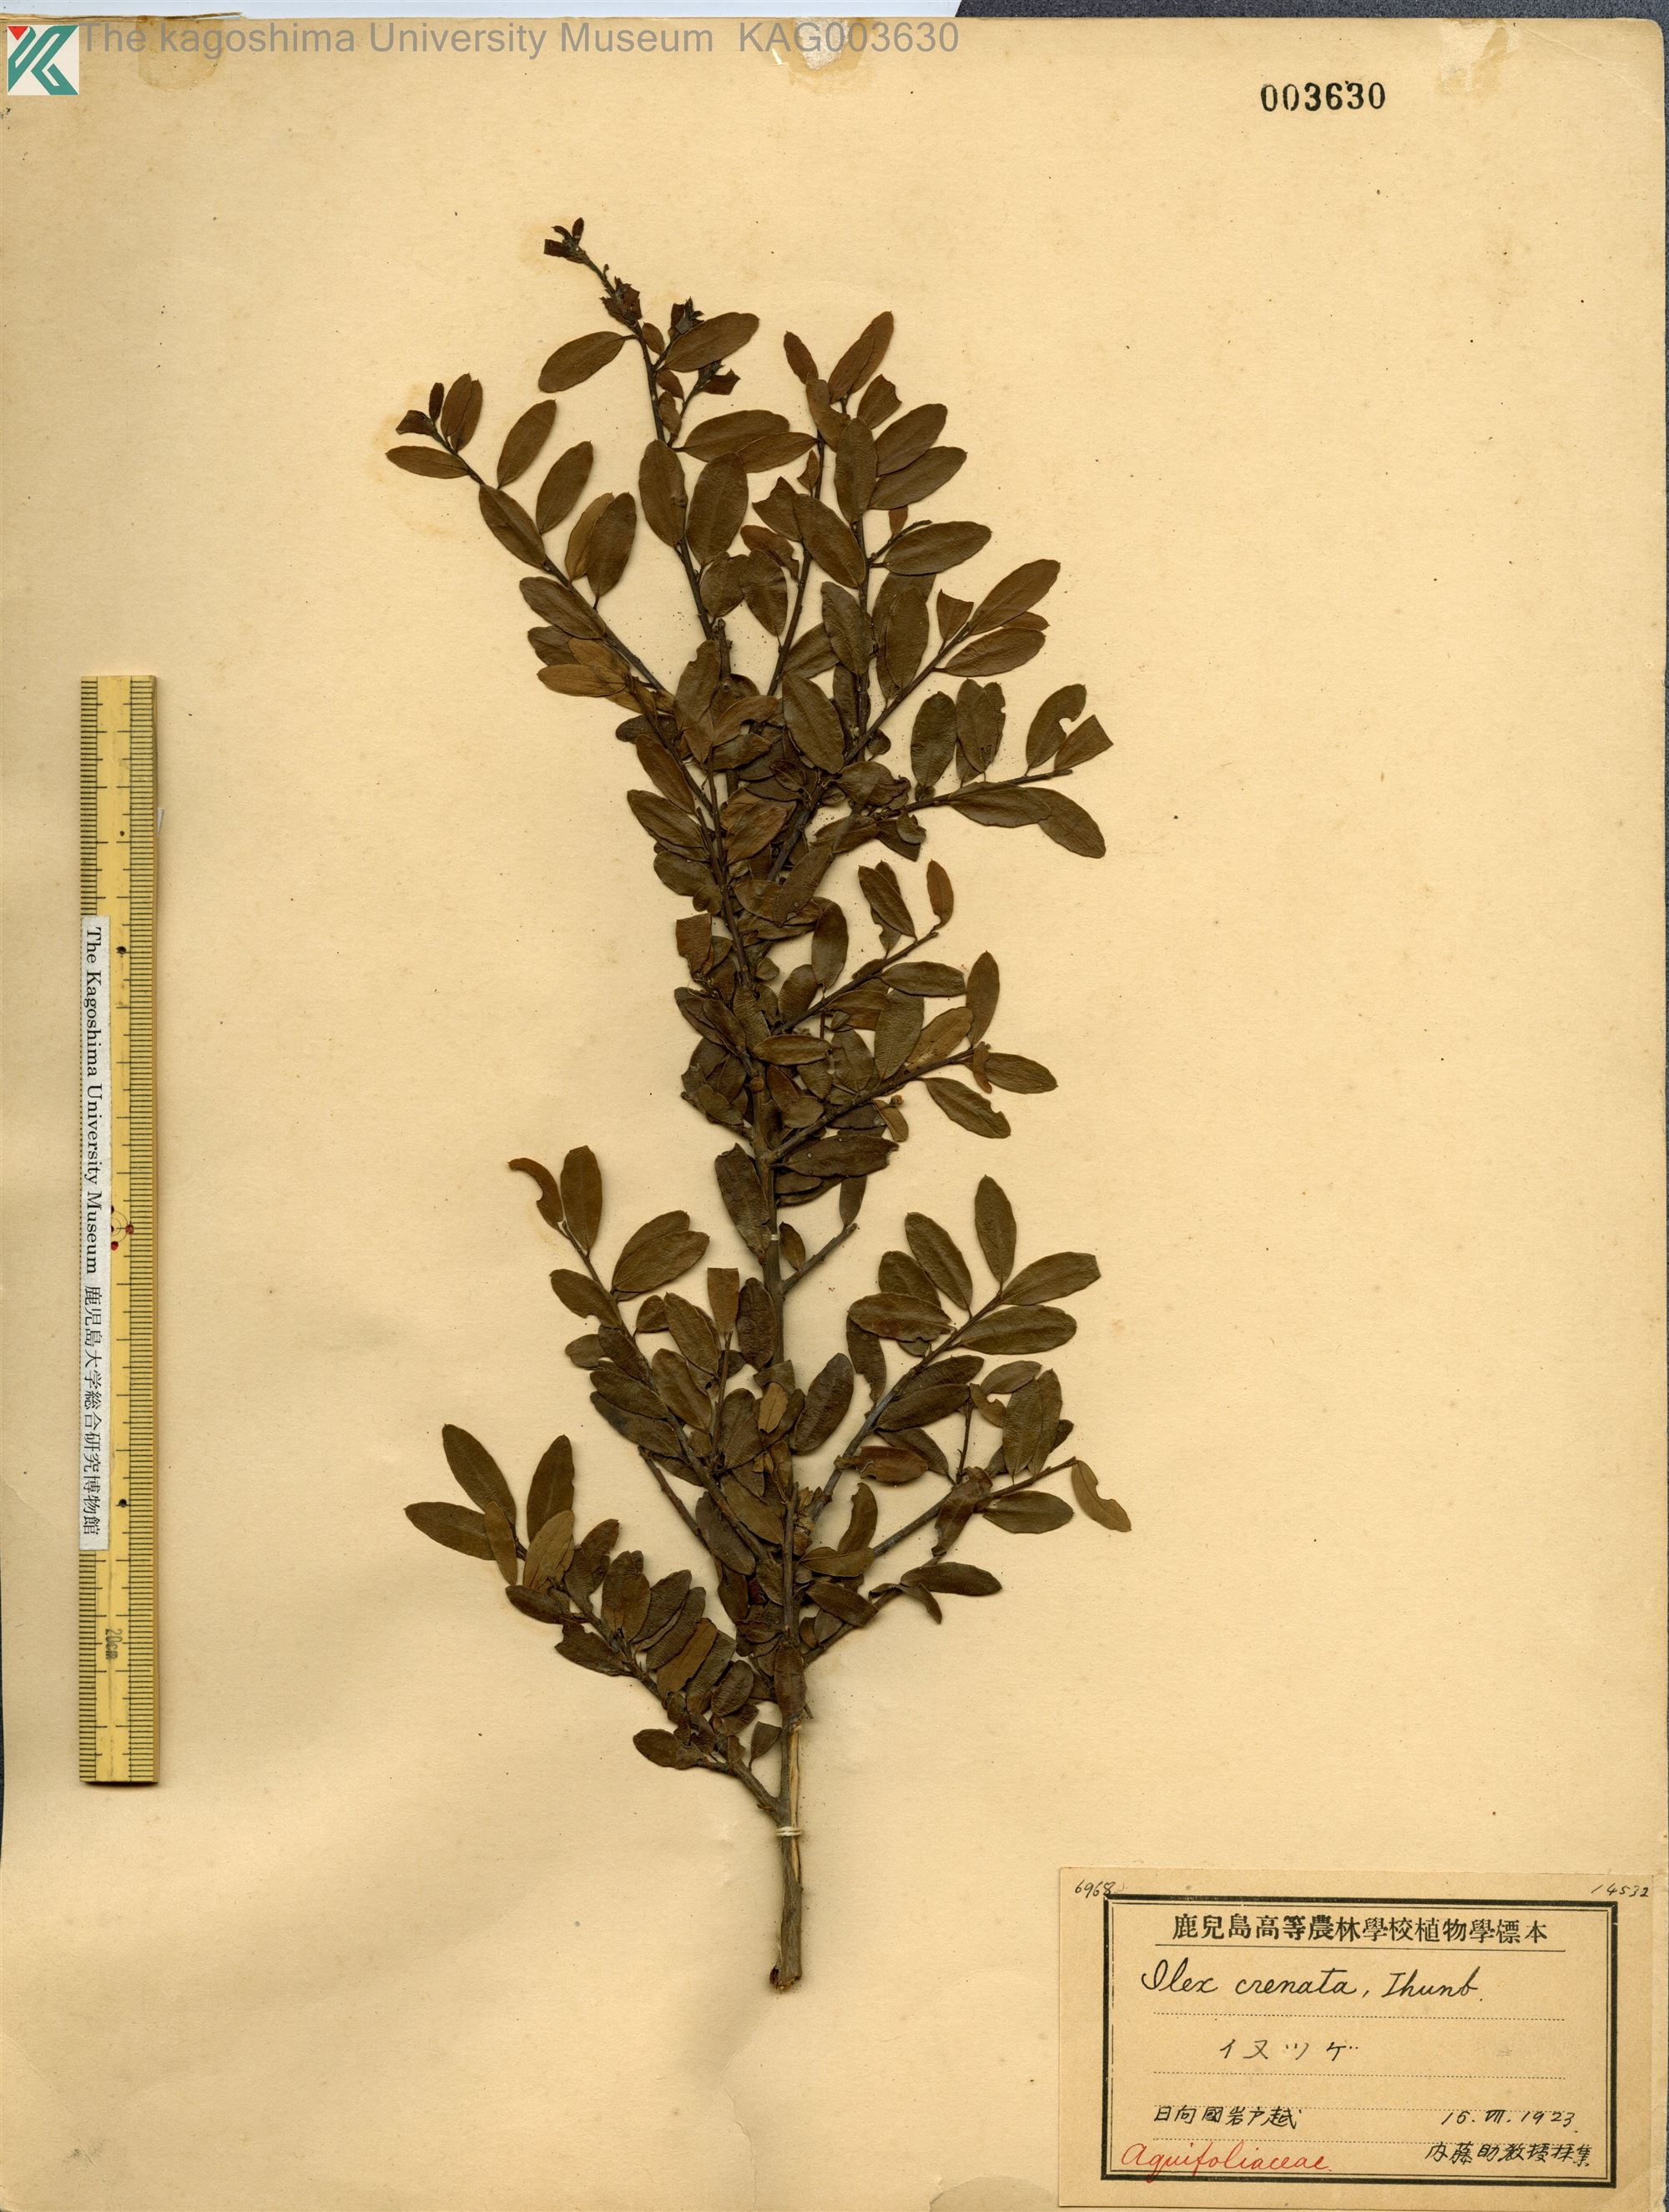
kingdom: Plantae
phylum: Tracheophyta
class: Magnoliopsida
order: Aquifoliales
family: Aquifoliaceae
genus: Ilex
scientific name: Ilex crenata
